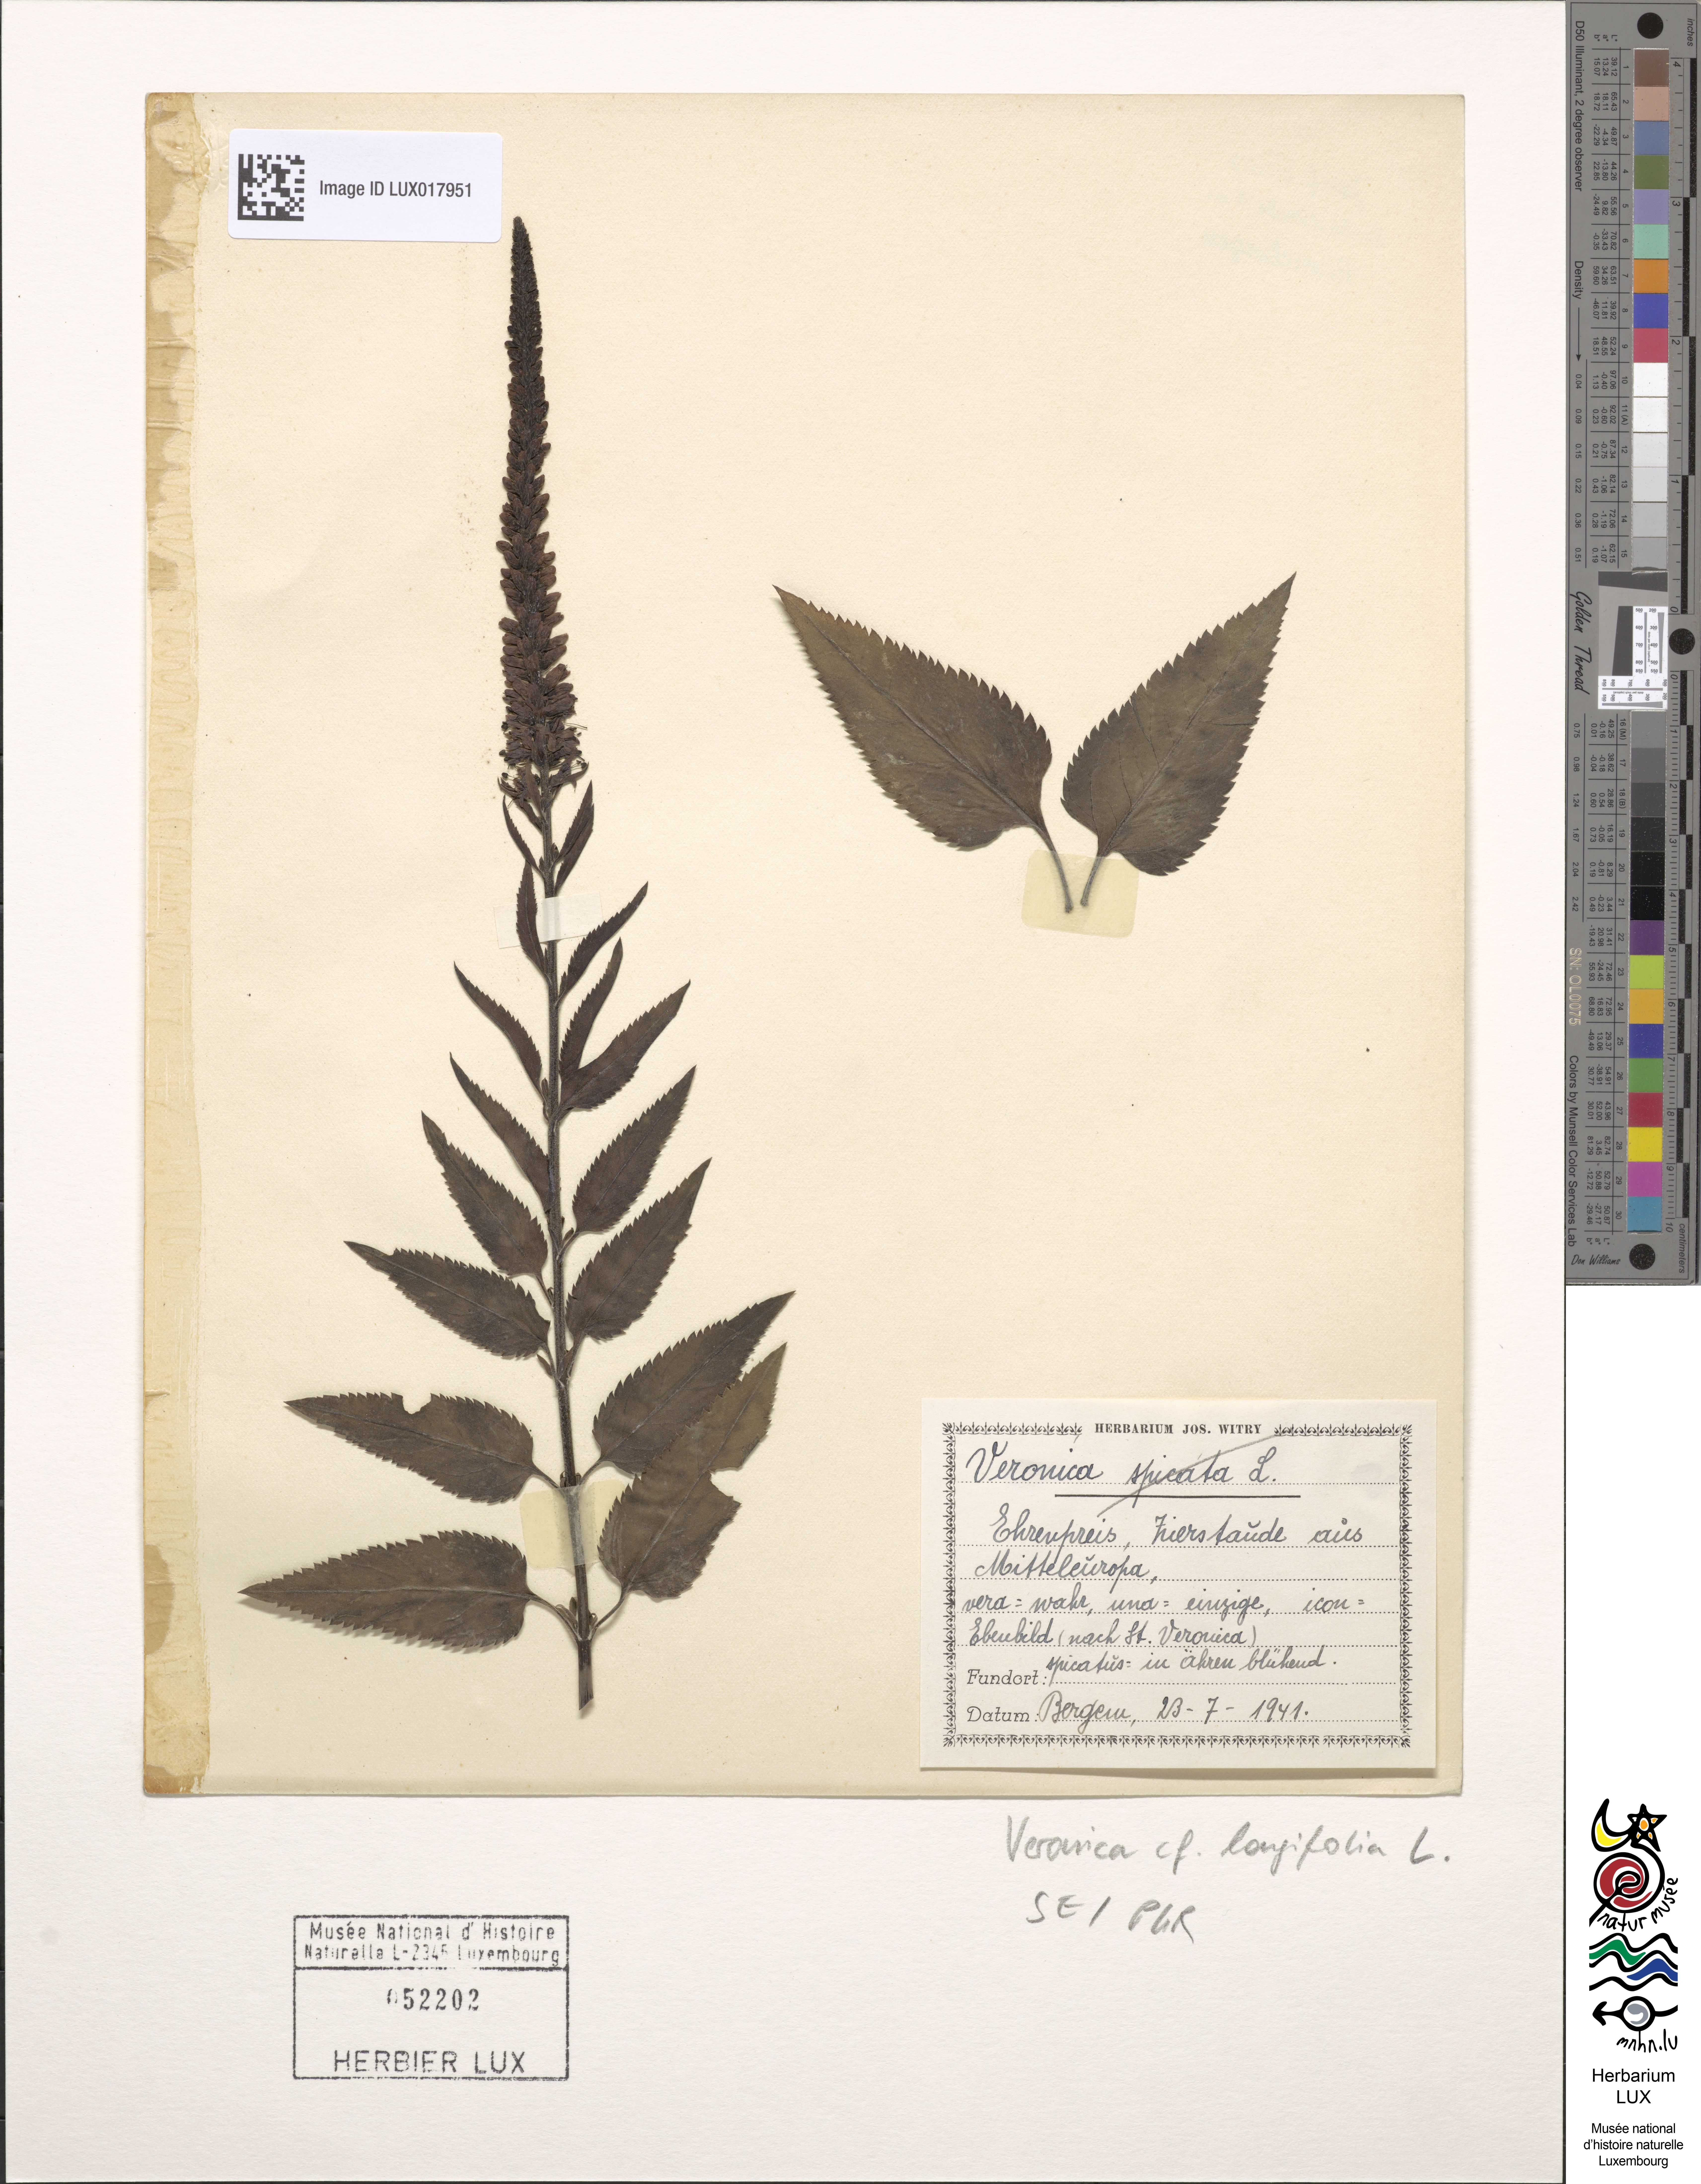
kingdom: Plantae
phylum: Tracheophyta
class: Magnoliopsida
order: Lamiales
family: Plantaginaceae
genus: Veronica
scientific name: Veronica longifolia
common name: Garden speedwell
